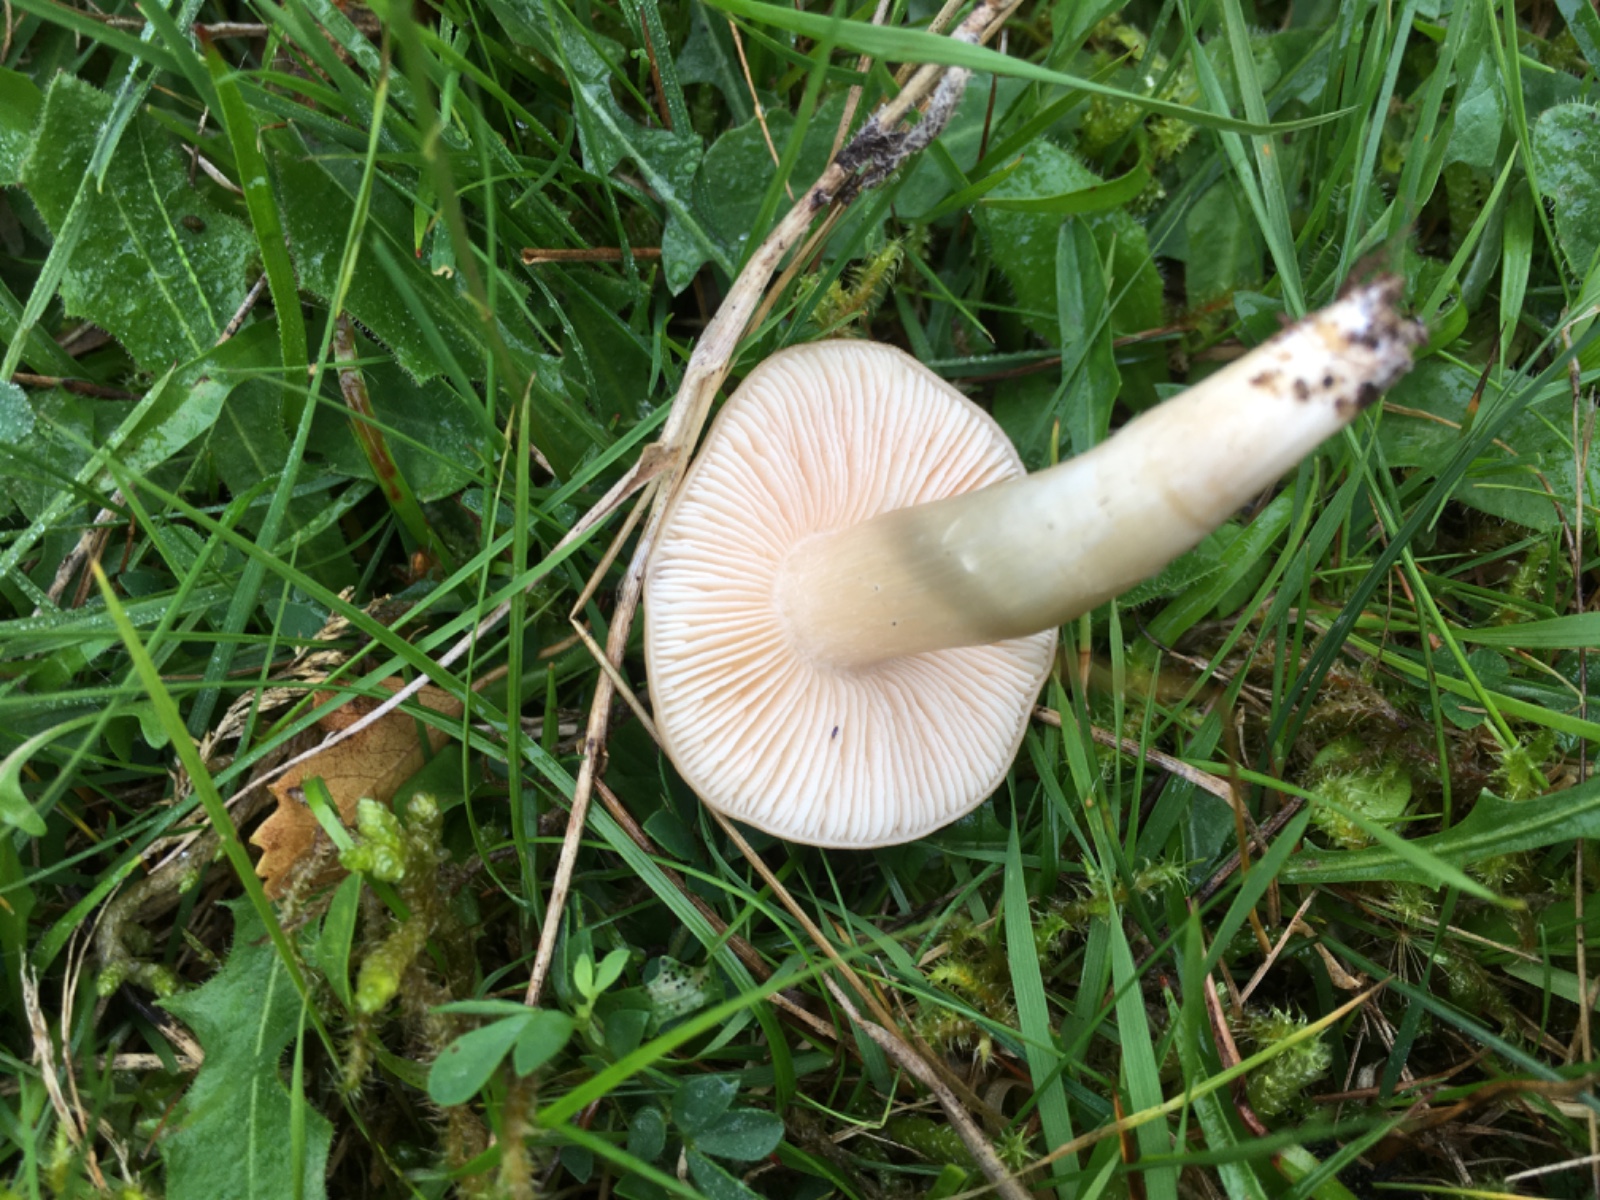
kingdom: Fungi
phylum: Basidiomycota
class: Agaricomycetes
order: Agaricales
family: Entolomataceae
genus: Entoloma
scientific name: Entoloma prunuloides
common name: mel-rødblad
